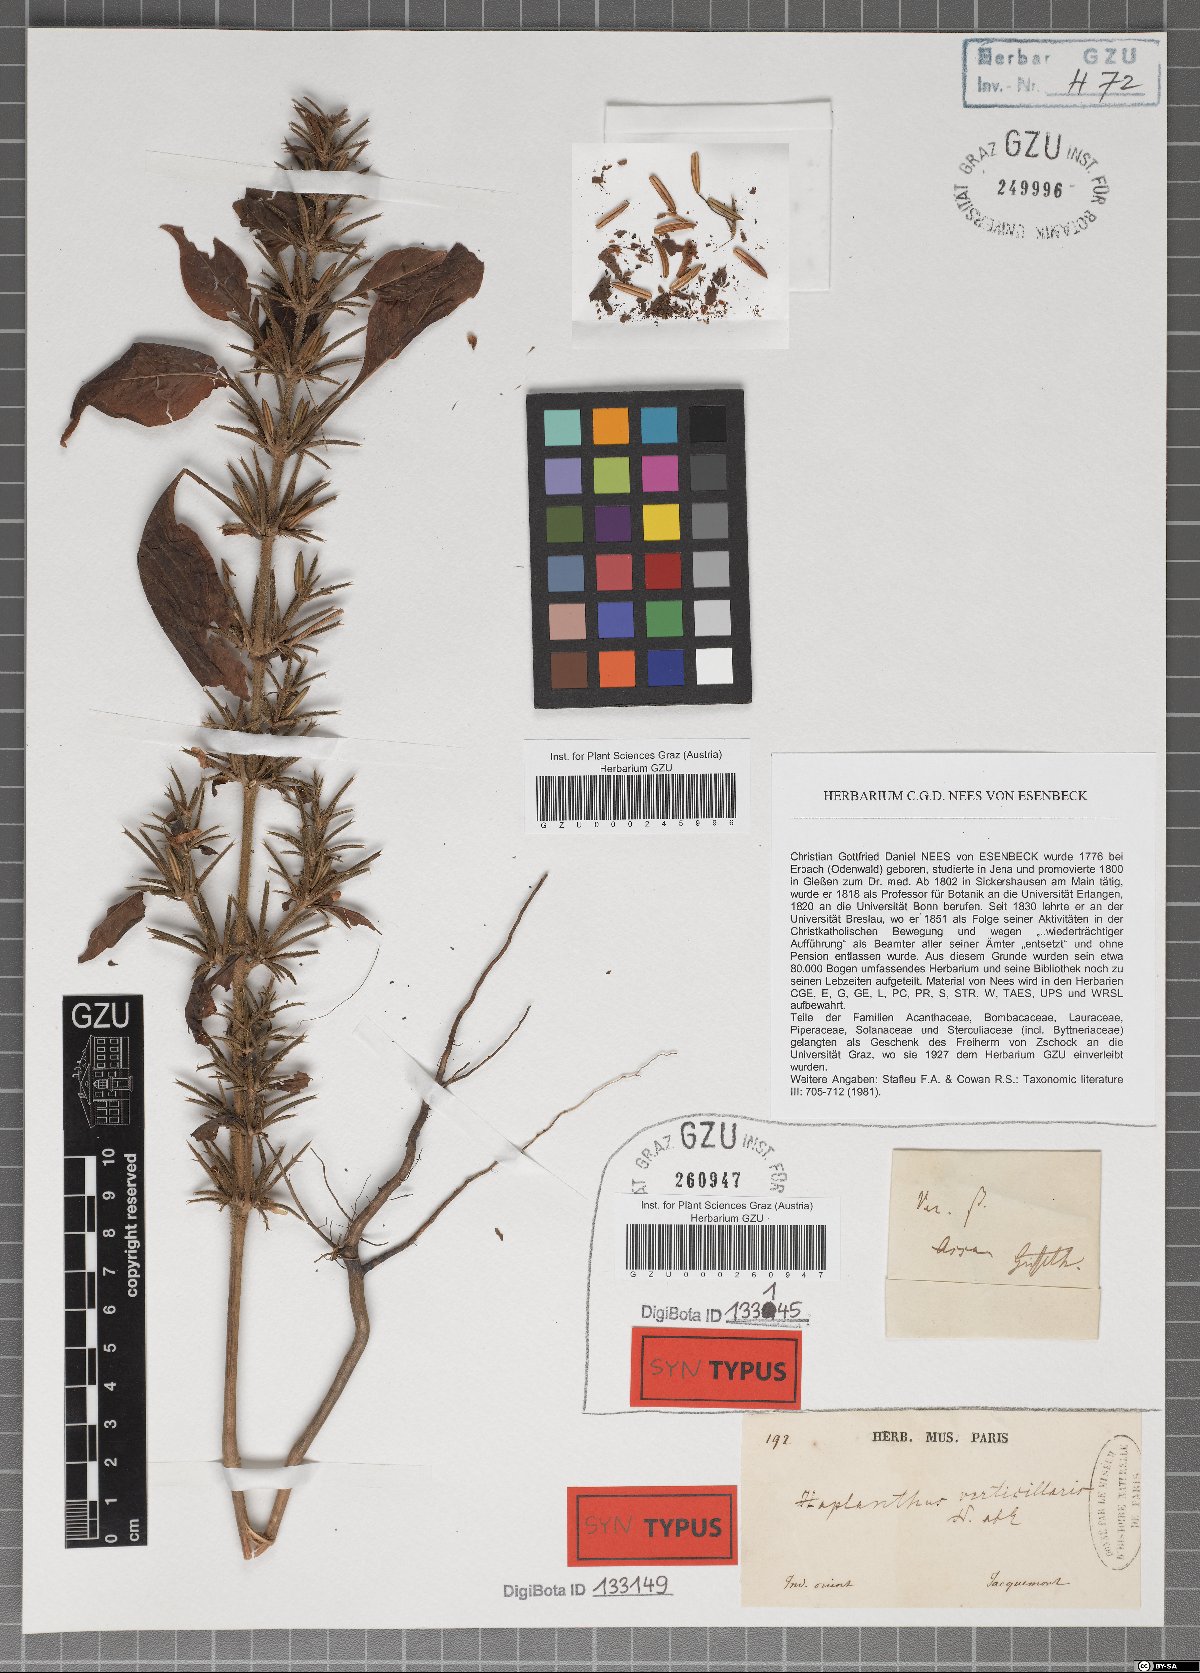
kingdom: Plantae
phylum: Tracheophyta
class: Magnoliopsida
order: Lamiales
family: Acanthaceae
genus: Haplanthodes
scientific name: Haplanthodes verticillatus
